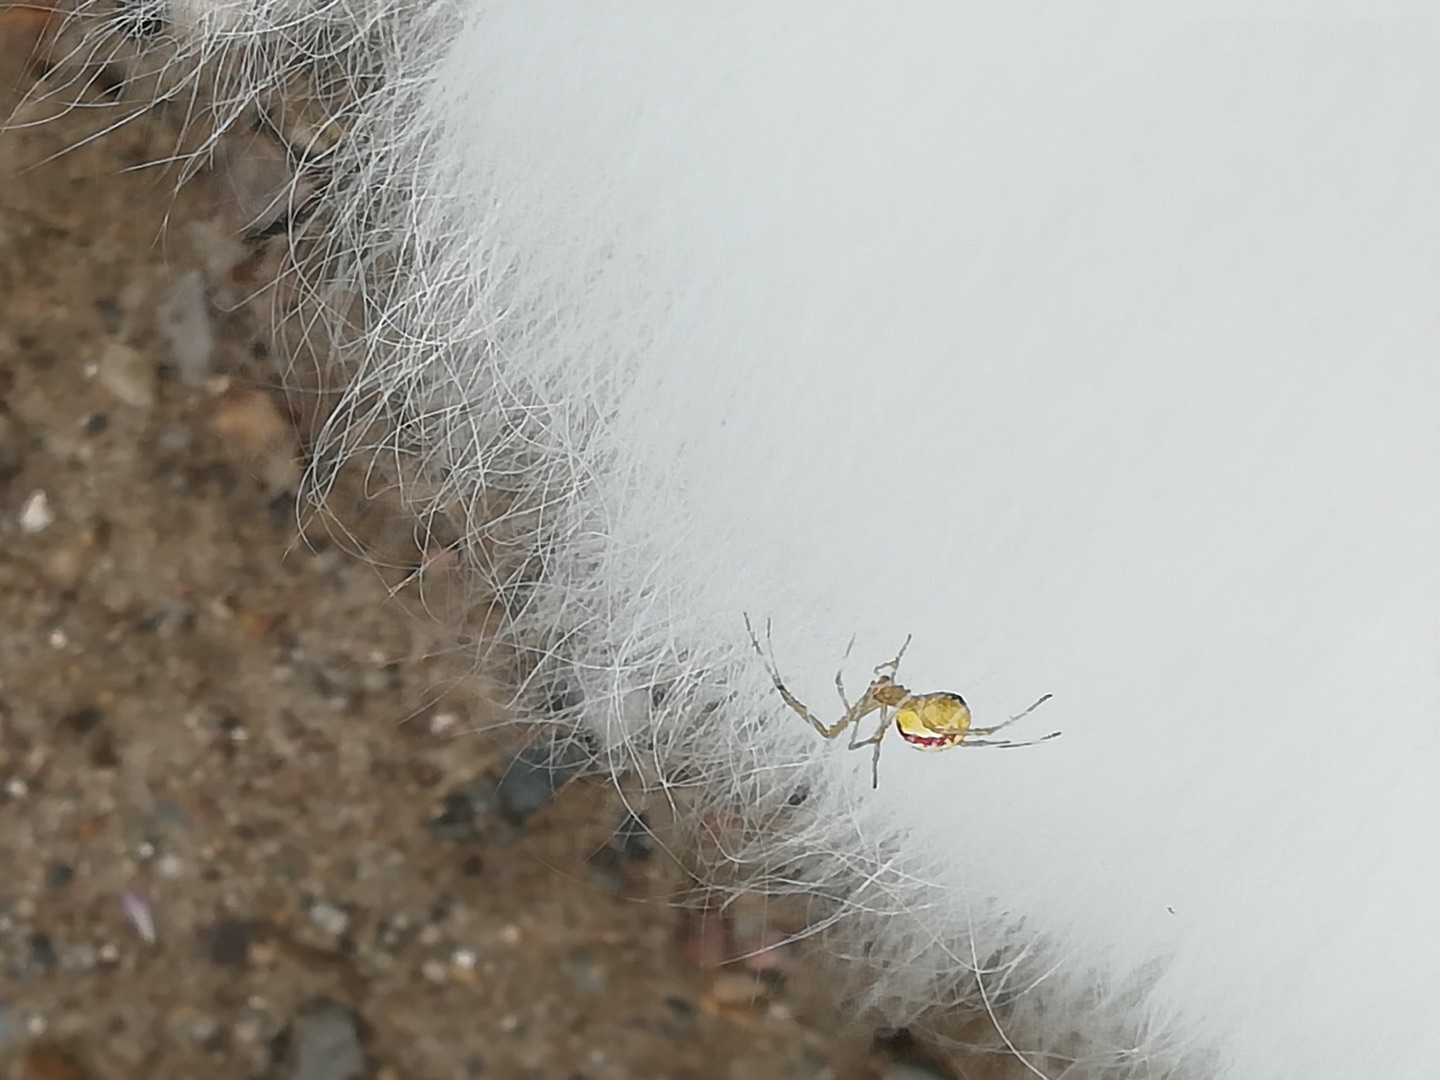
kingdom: Animalia
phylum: Arthropoda
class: Arachnida
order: Araneae
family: Theridiidae
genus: Enoplognatha
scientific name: Enoplognatha
